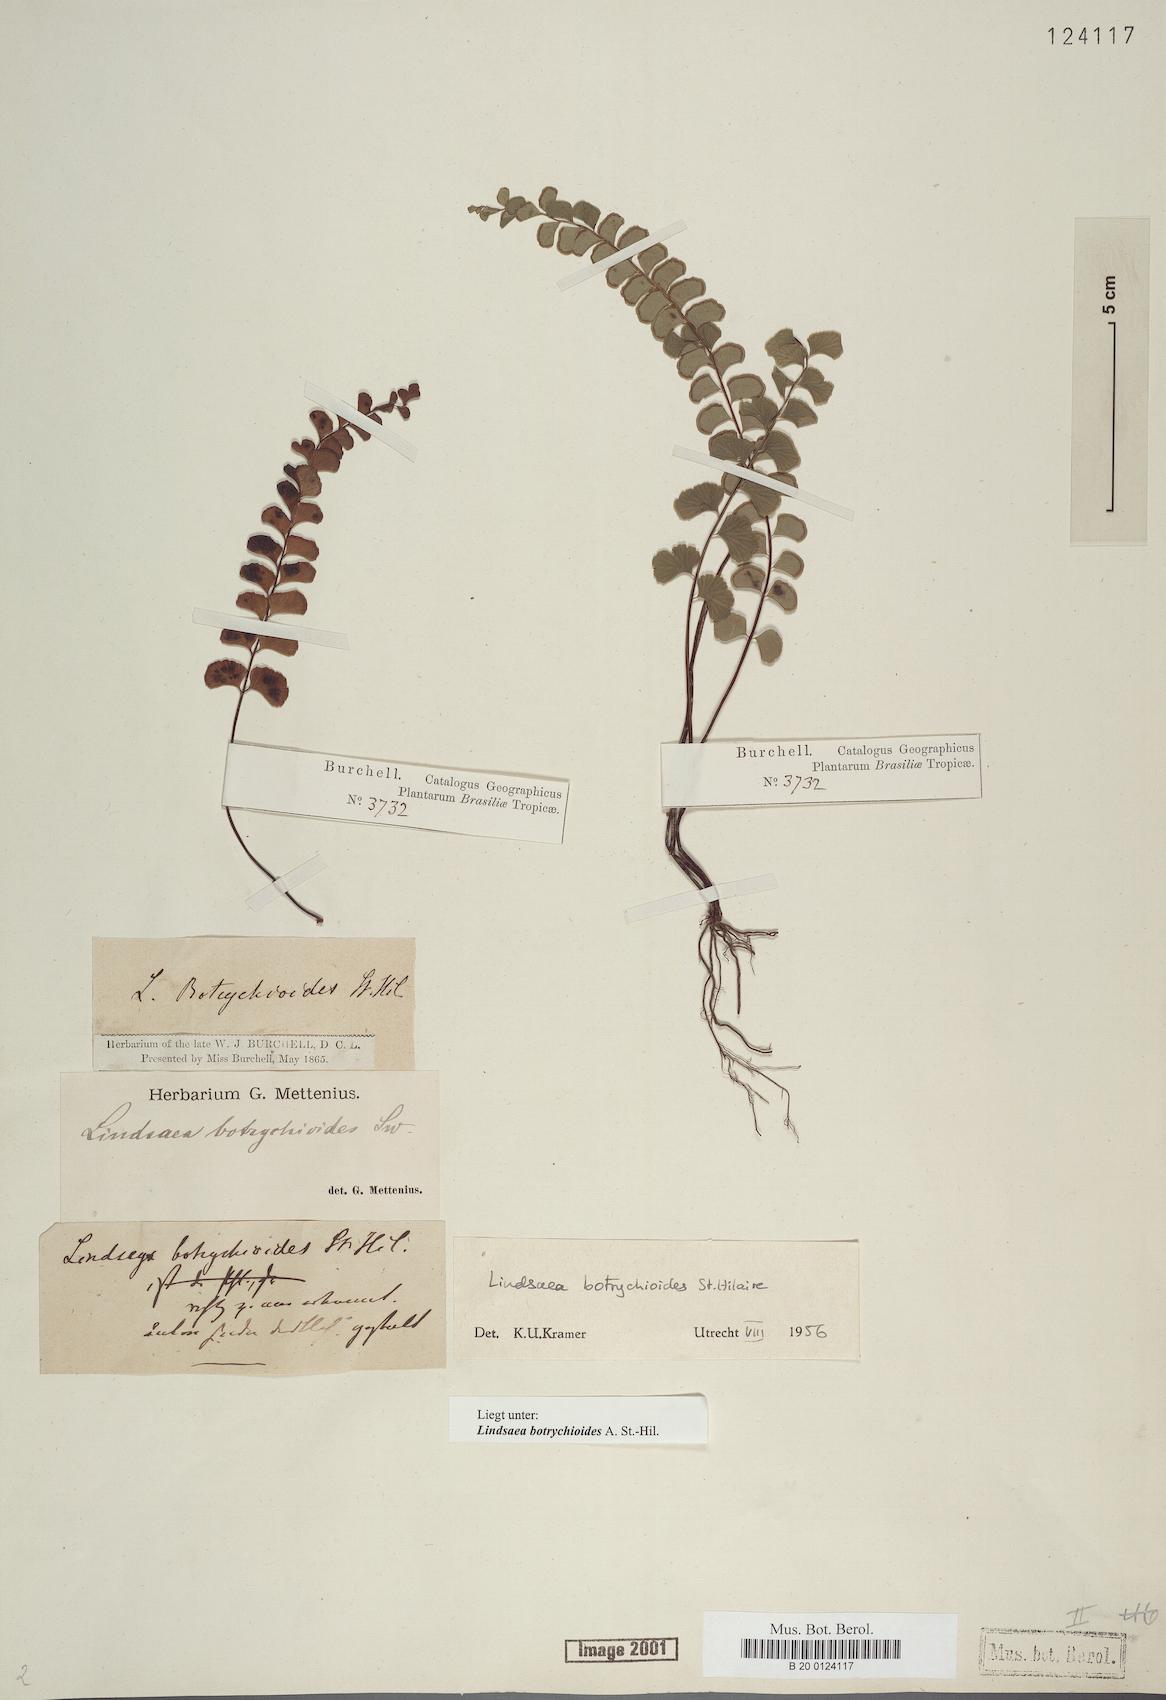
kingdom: Plantae
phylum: Tracheophyta
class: Polypodiopsida
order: Polypodiales
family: Lindsaeaceae
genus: Lindsaea
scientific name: Lindsaea botrychioides
